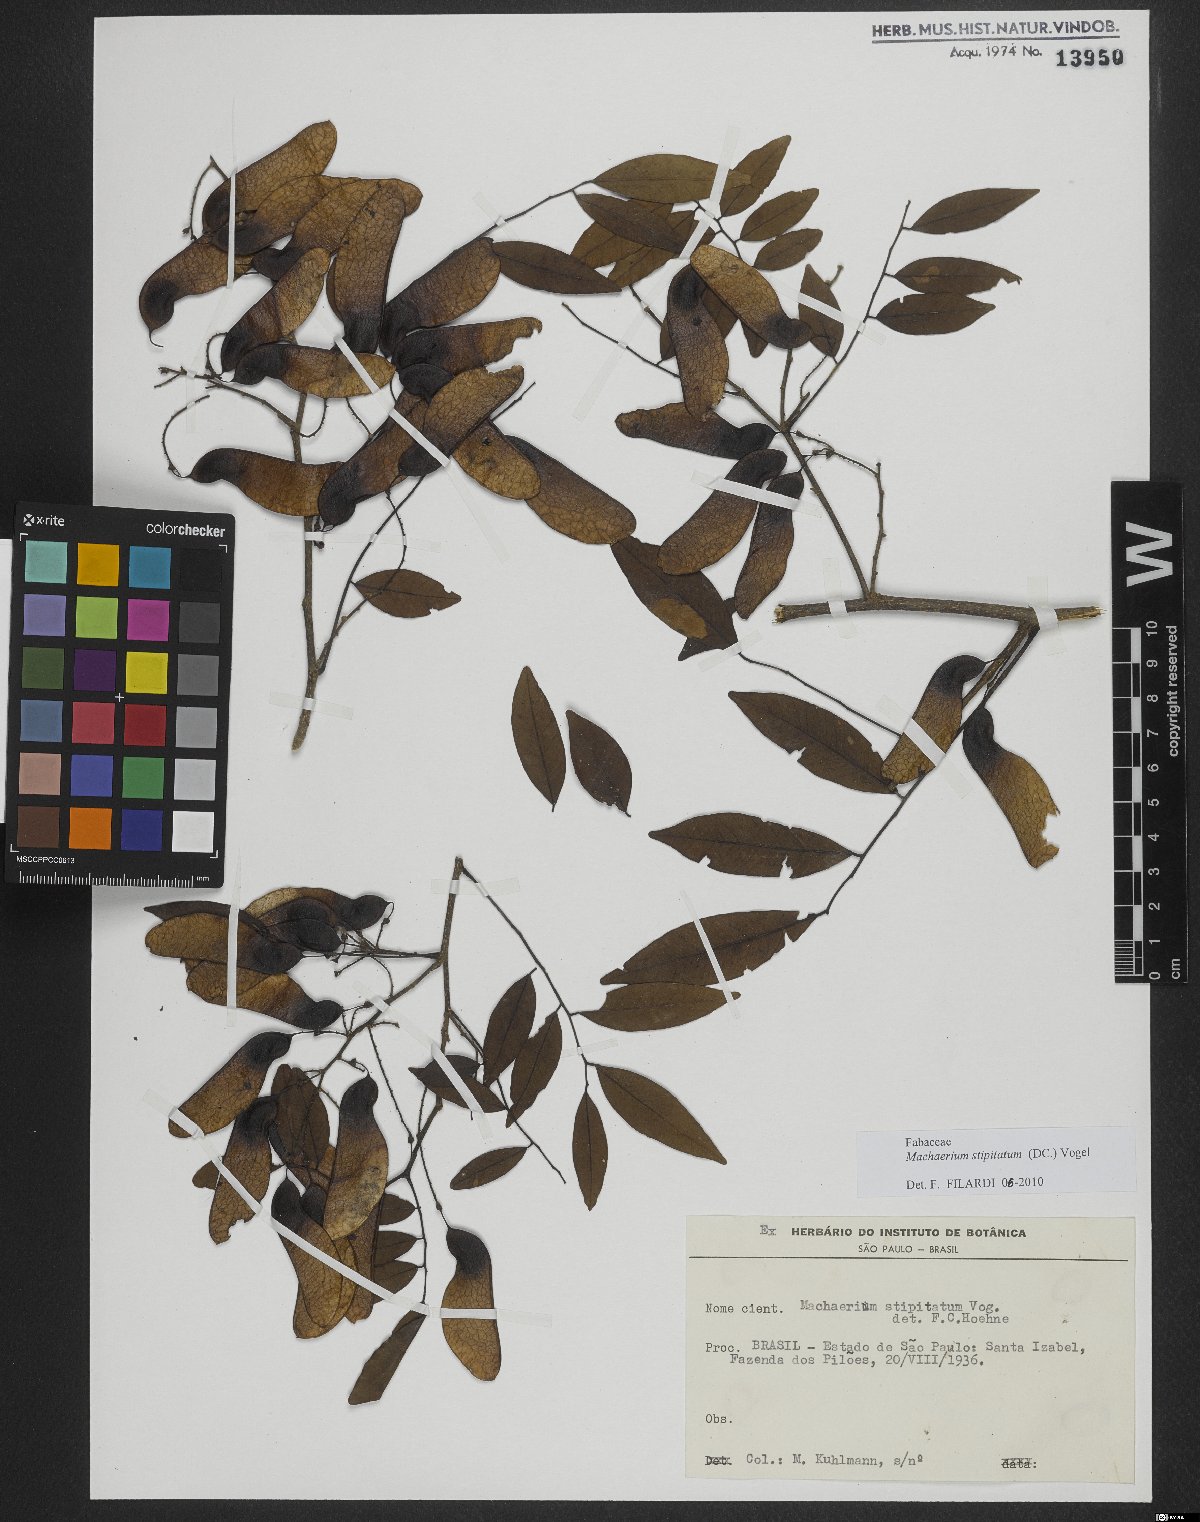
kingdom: Plantae
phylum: Tracheophyta
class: Magnoliopsida
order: Fabales
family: Fabaceae
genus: Machaerium
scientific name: Machaerium stipitatum
